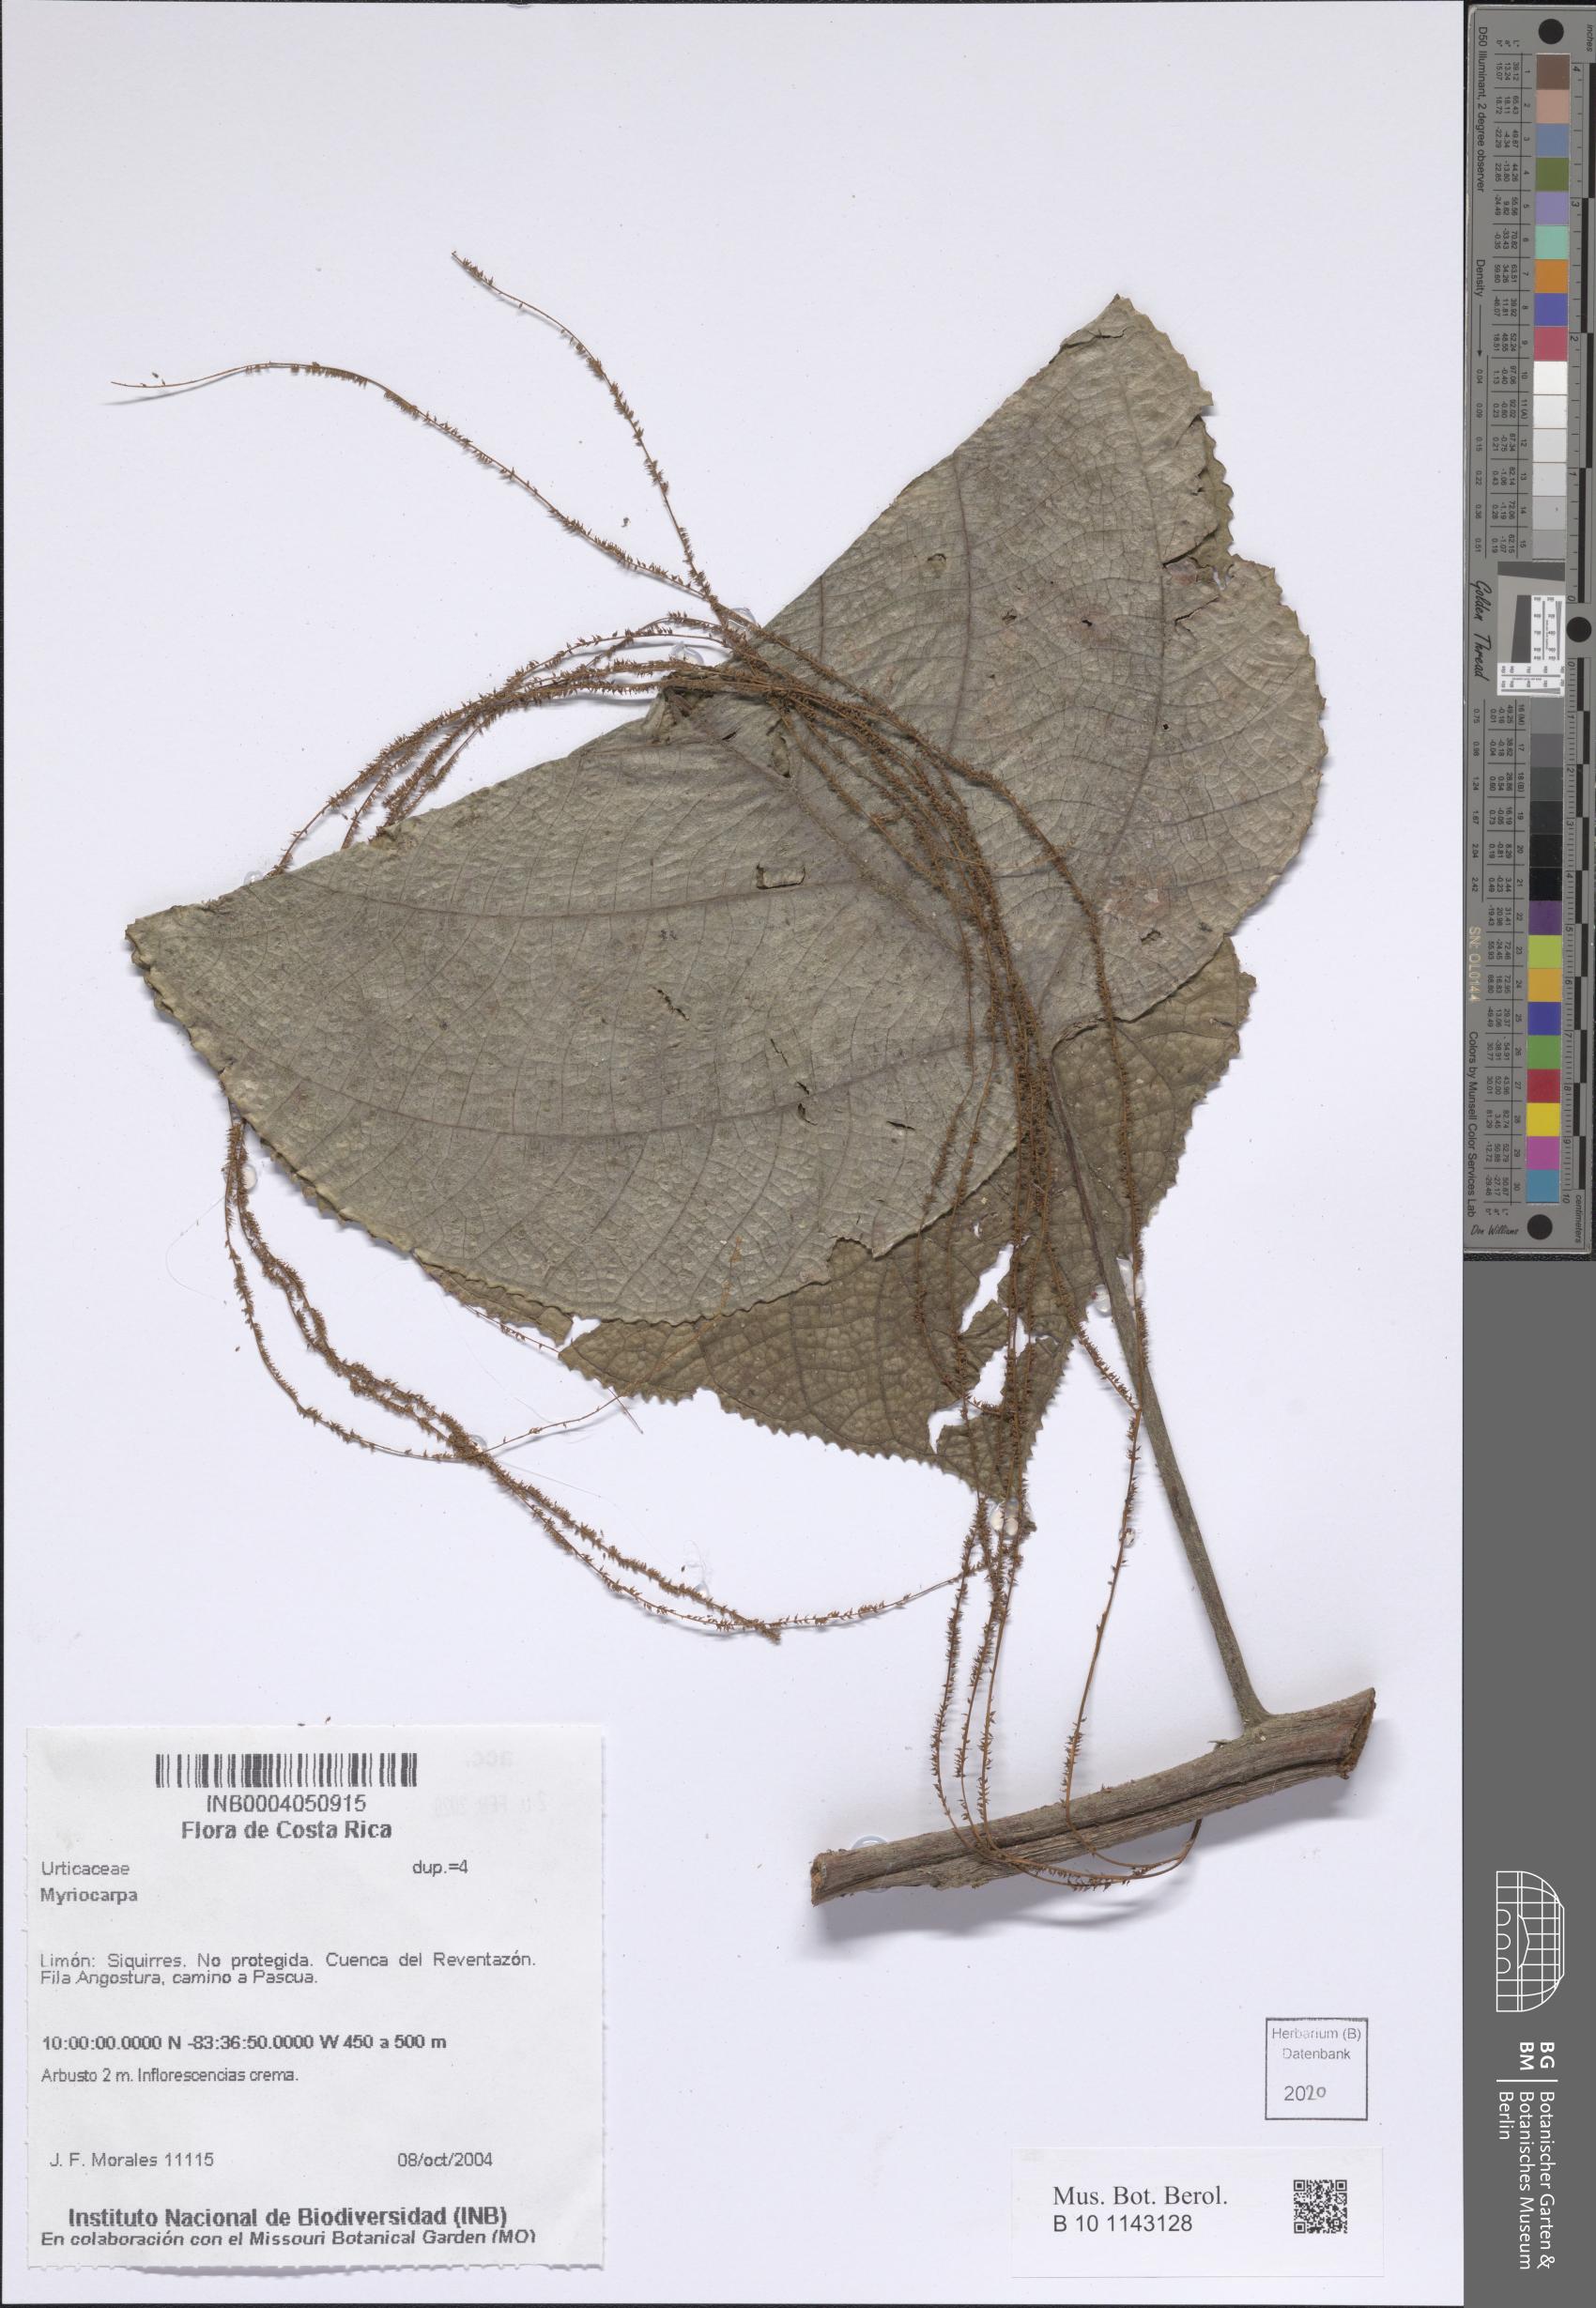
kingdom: Plantae
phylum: Tracheophyta
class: Magnoliopsida
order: Rosales
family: Urticaceae
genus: Myriocarpa
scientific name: Myriocarpa
